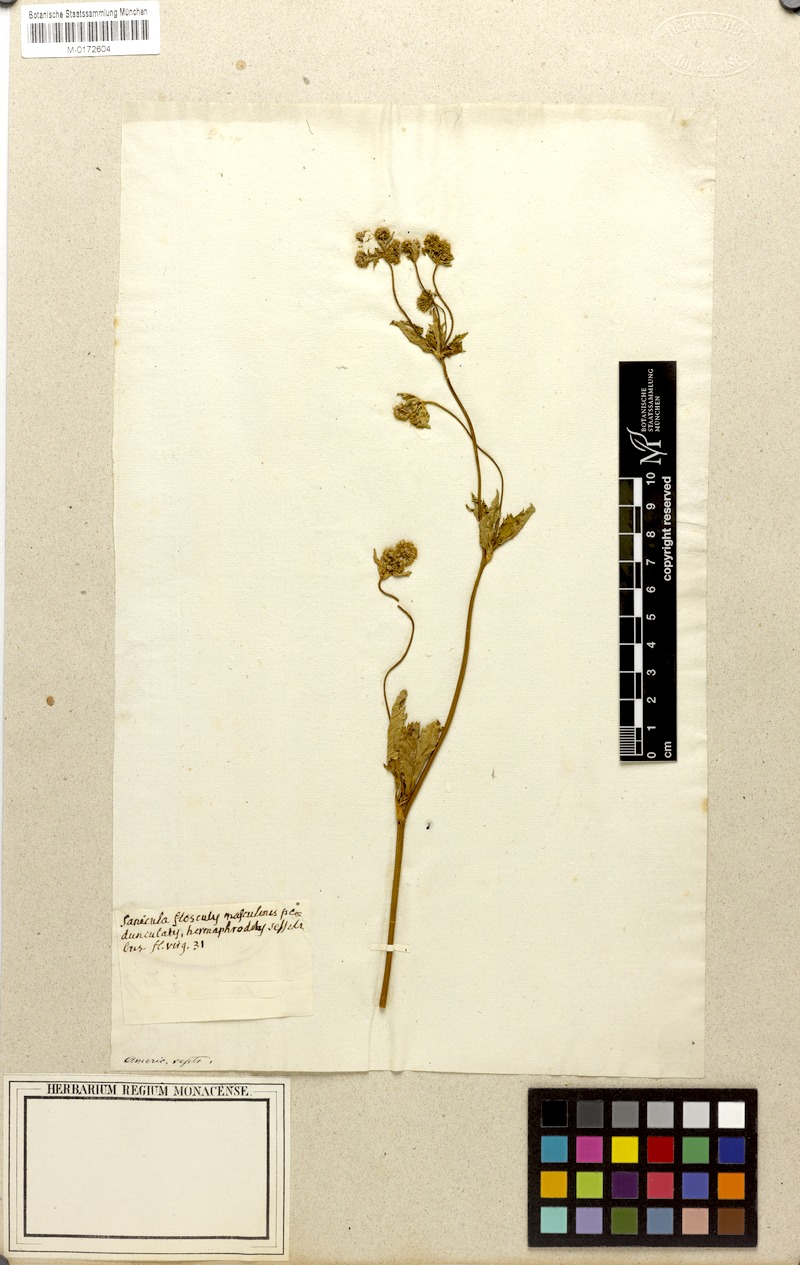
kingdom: Plantae
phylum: Tracheophyta
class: Magnoliopsida
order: Apiales
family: Apiaceae
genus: Sanicula
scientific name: Sanicula marilandica
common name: Black snakeroot
